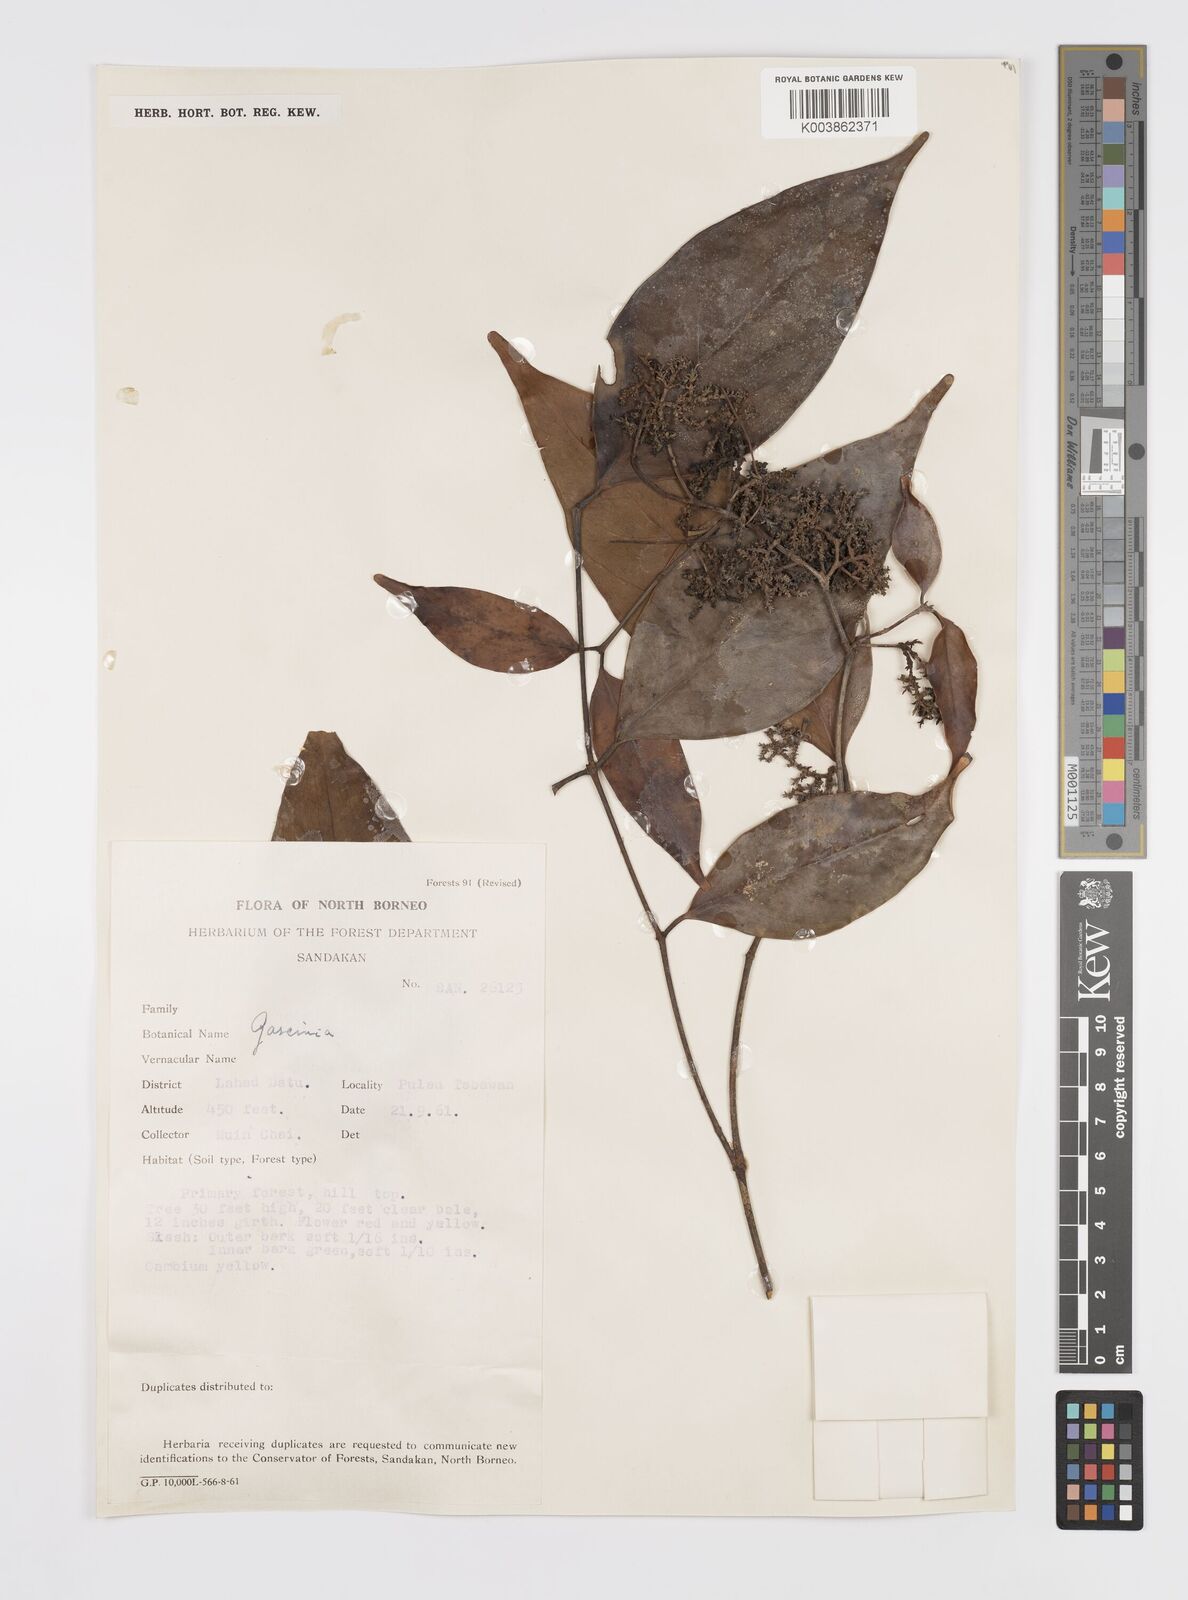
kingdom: Plantae
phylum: Tracheophyta
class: Magnoliopsida
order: Malpighiales
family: Clusiaceae
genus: Garcinia
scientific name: Garcinia
